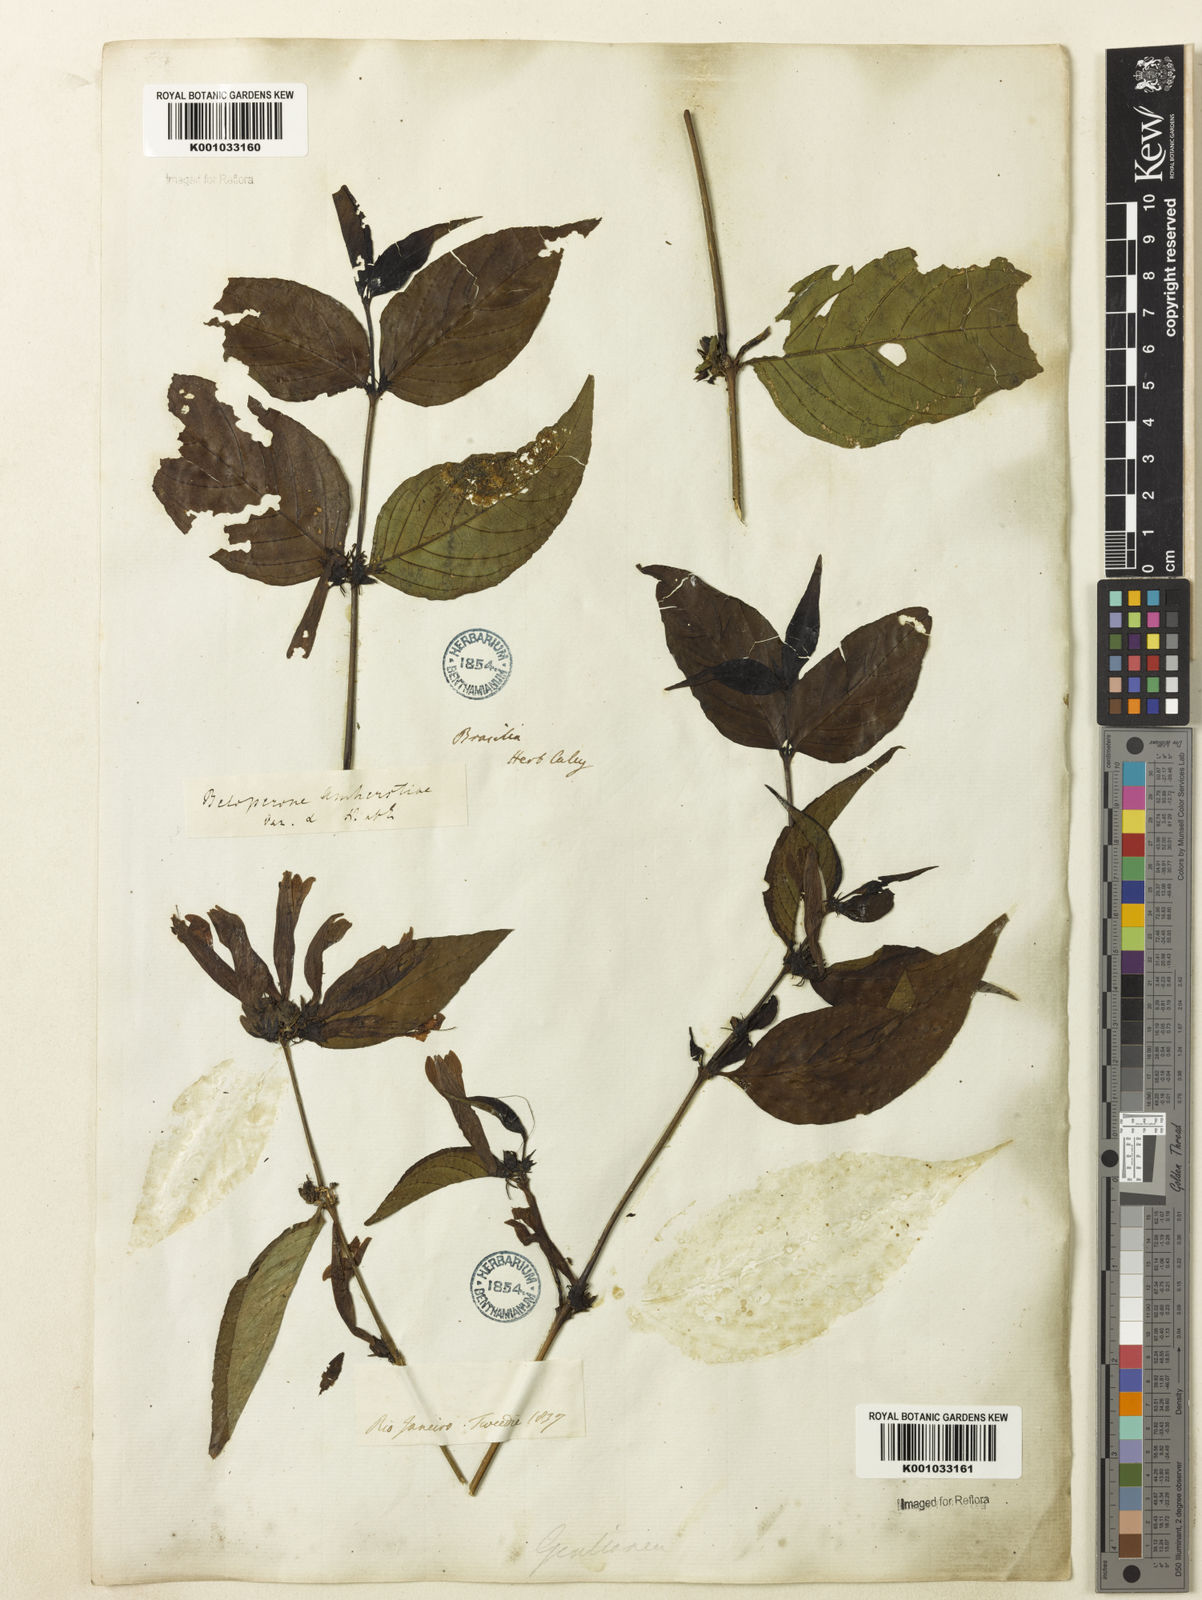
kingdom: Plantae
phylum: Tracheophyta
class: Magnoliopsida
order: Lamiales
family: Acanthaceae
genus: Justicia
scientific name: Justicia brasiliana
